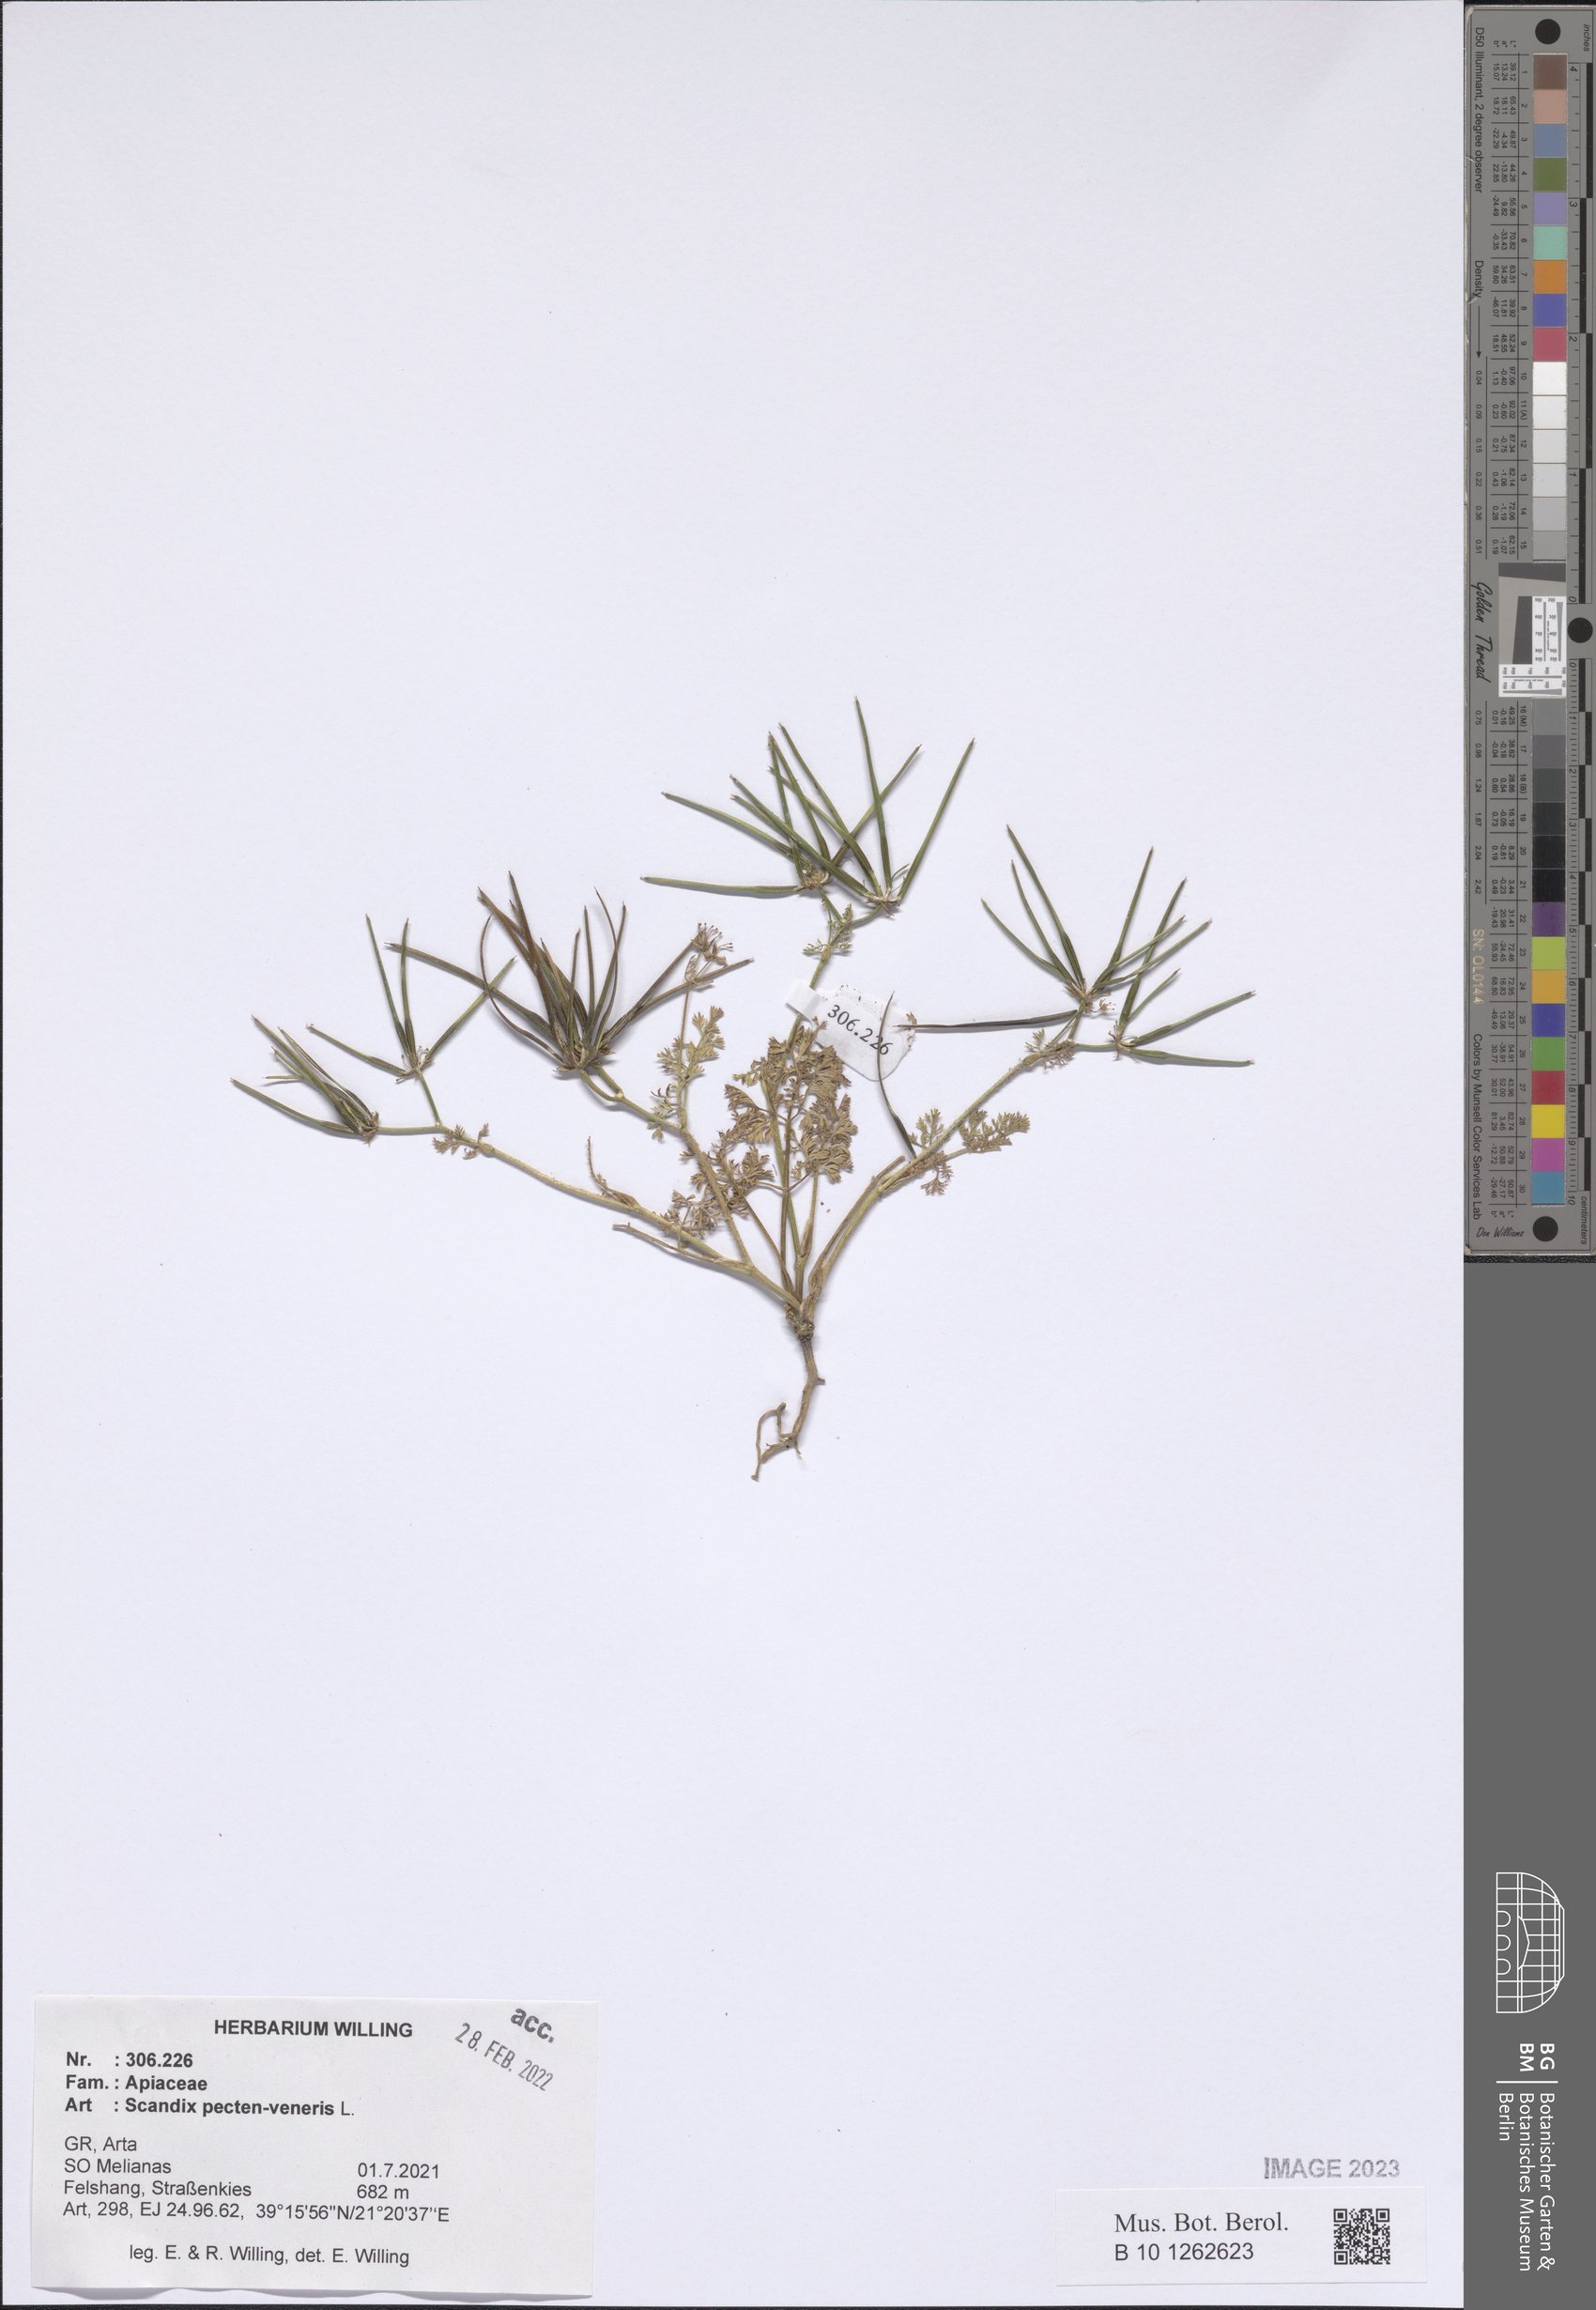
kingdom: Plantae
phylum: Tracheophyta
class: Magnoliopsida
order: Apiales
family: Apiaceae
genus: Scandix
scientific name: Scandix pecten-veneris
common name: Shepherd's-needle
